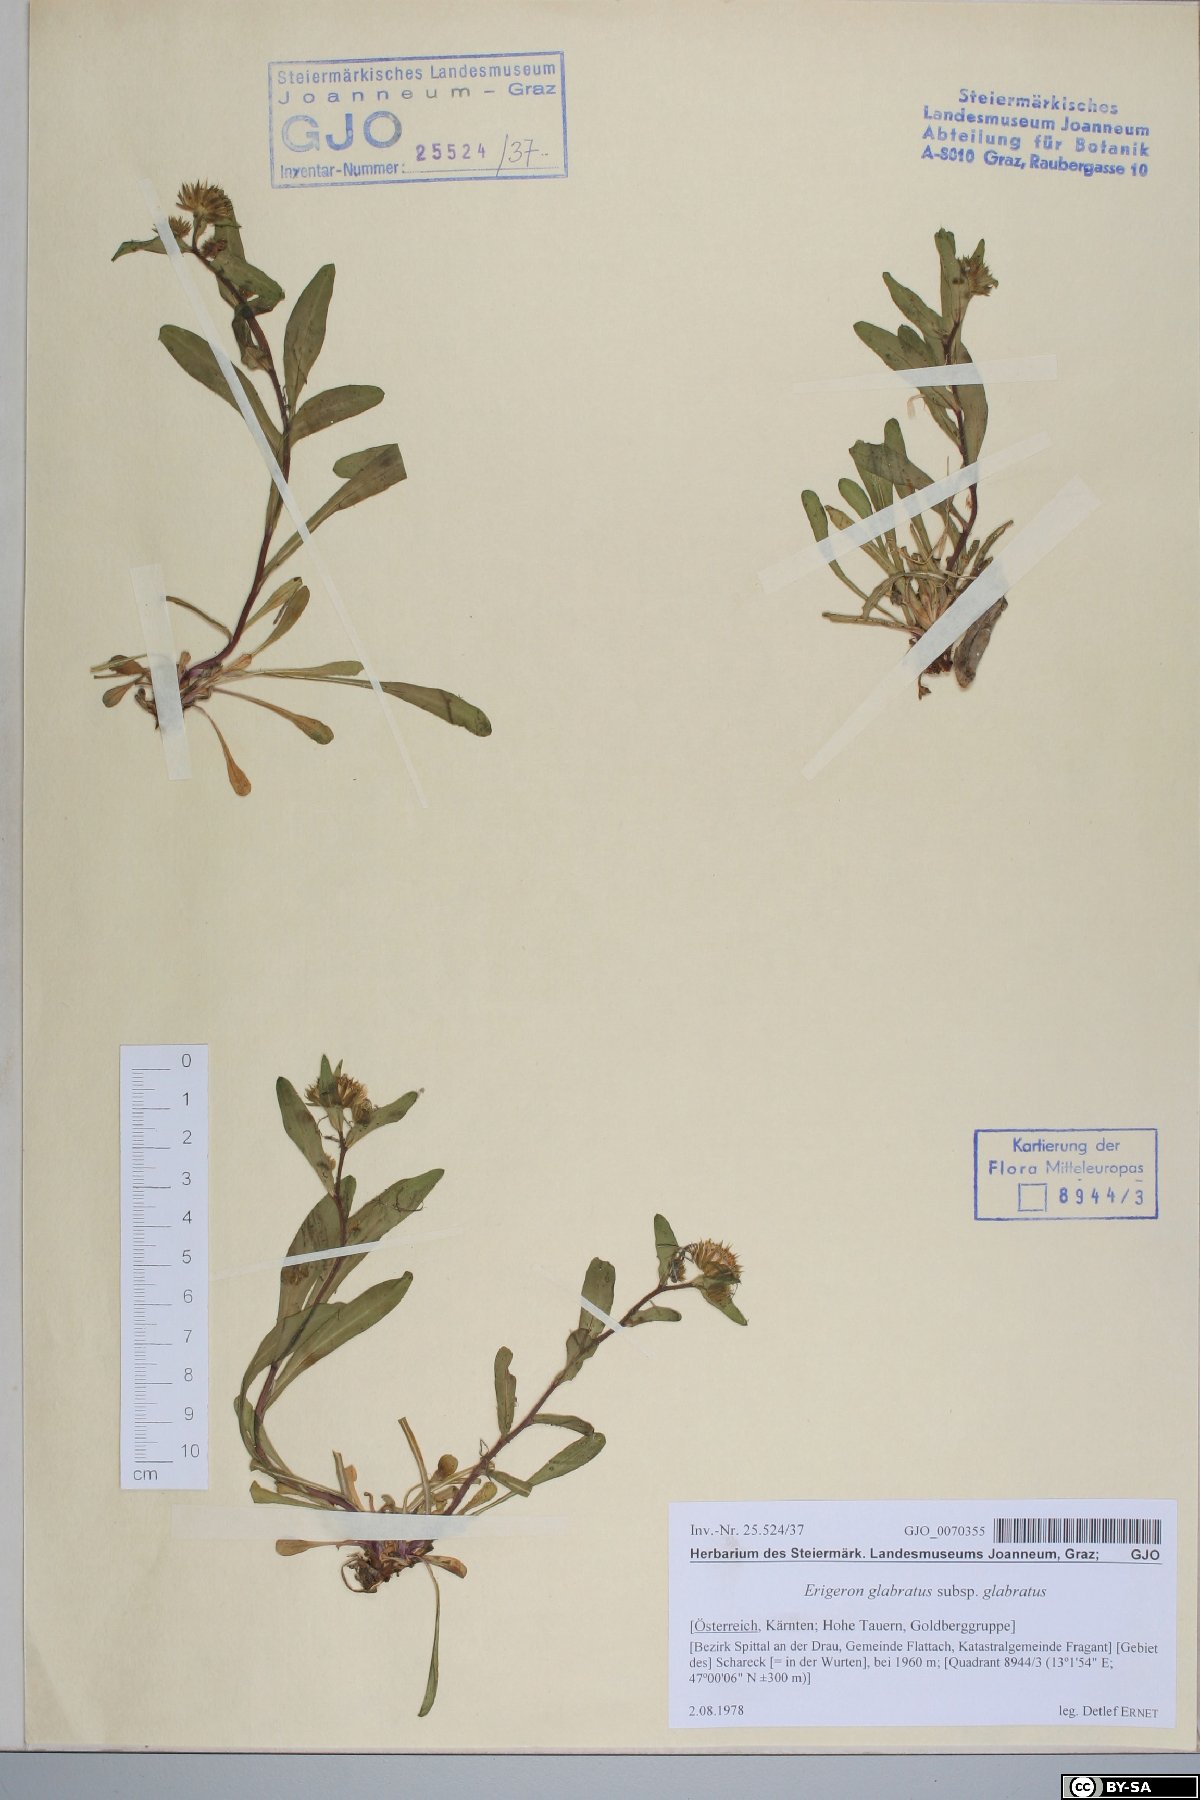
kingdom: Plantae
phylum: Tracheophyta
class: Magnoliopsida
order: Asterales
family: Asteraceae
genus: Erigeron
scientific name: Erigeron atticus
